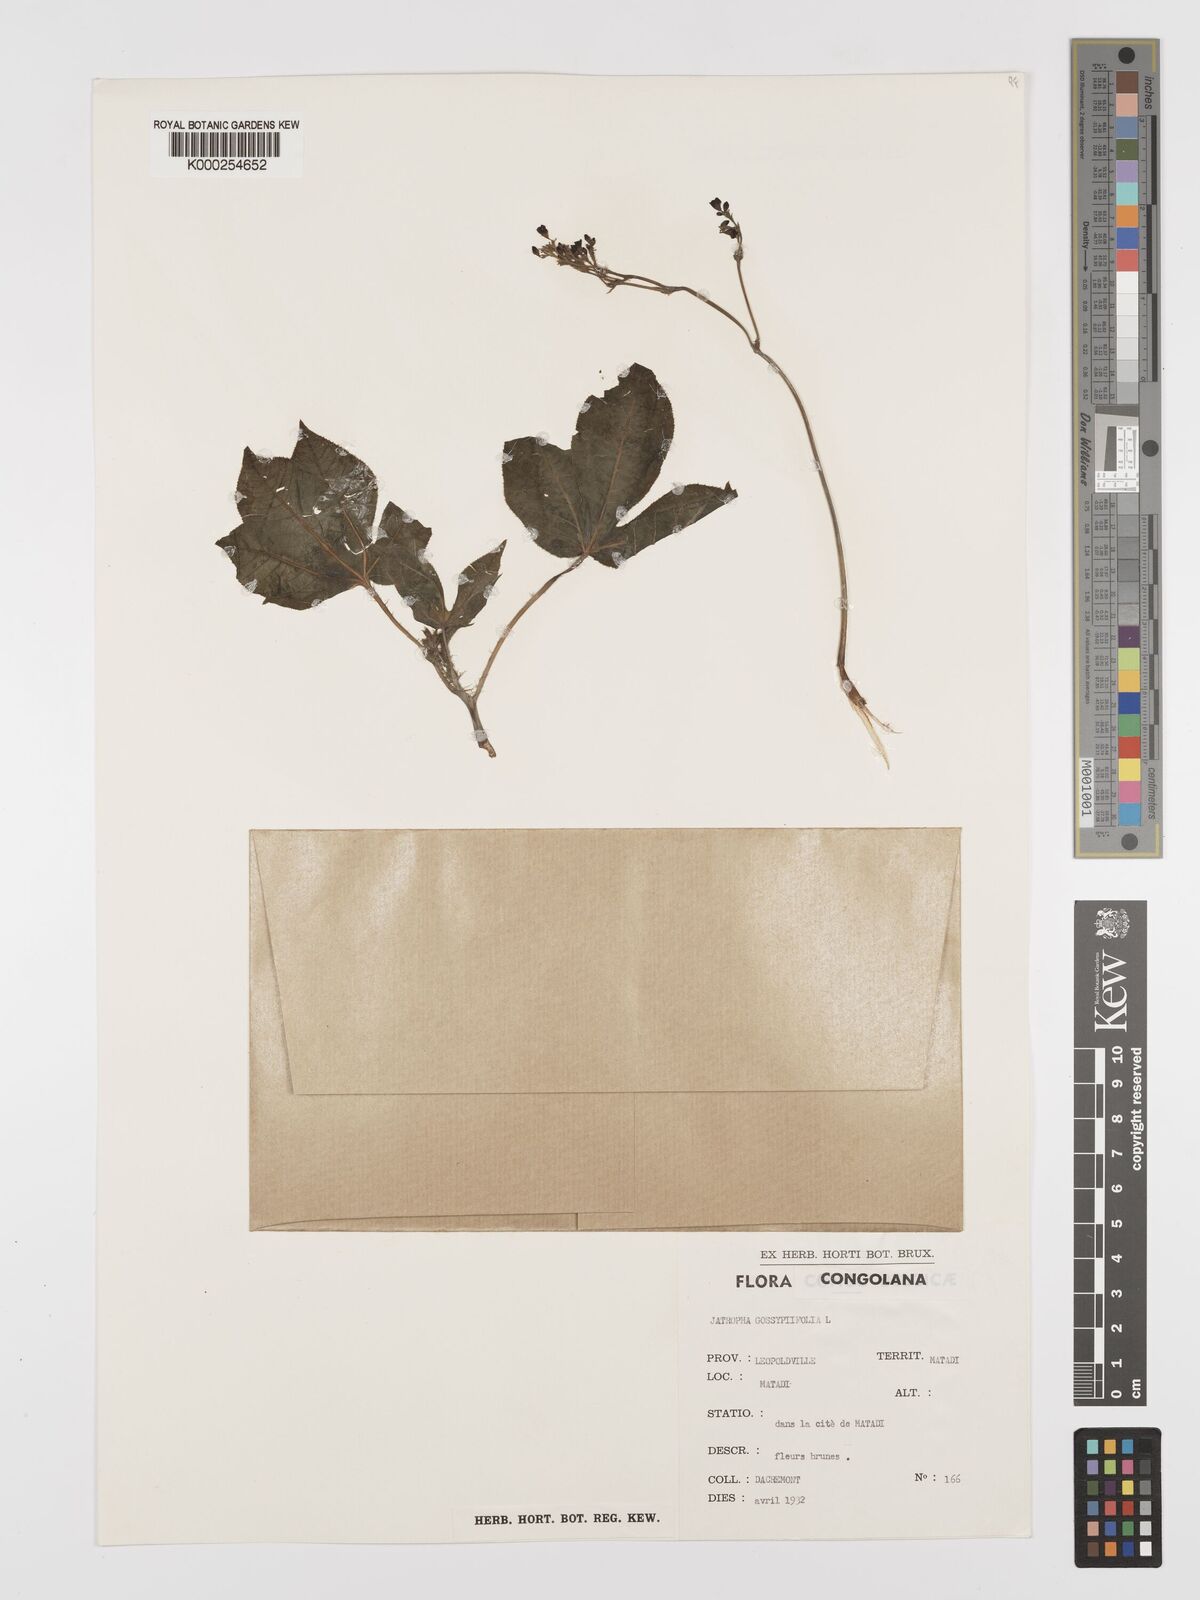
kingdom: Plantae
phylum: Tracheophyta
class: Magnoliopsida
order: Malpighiales
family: Euphorbiaceae
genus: Jatropha
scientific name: Jatropha gossypiifolia
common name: Bellyache bush
